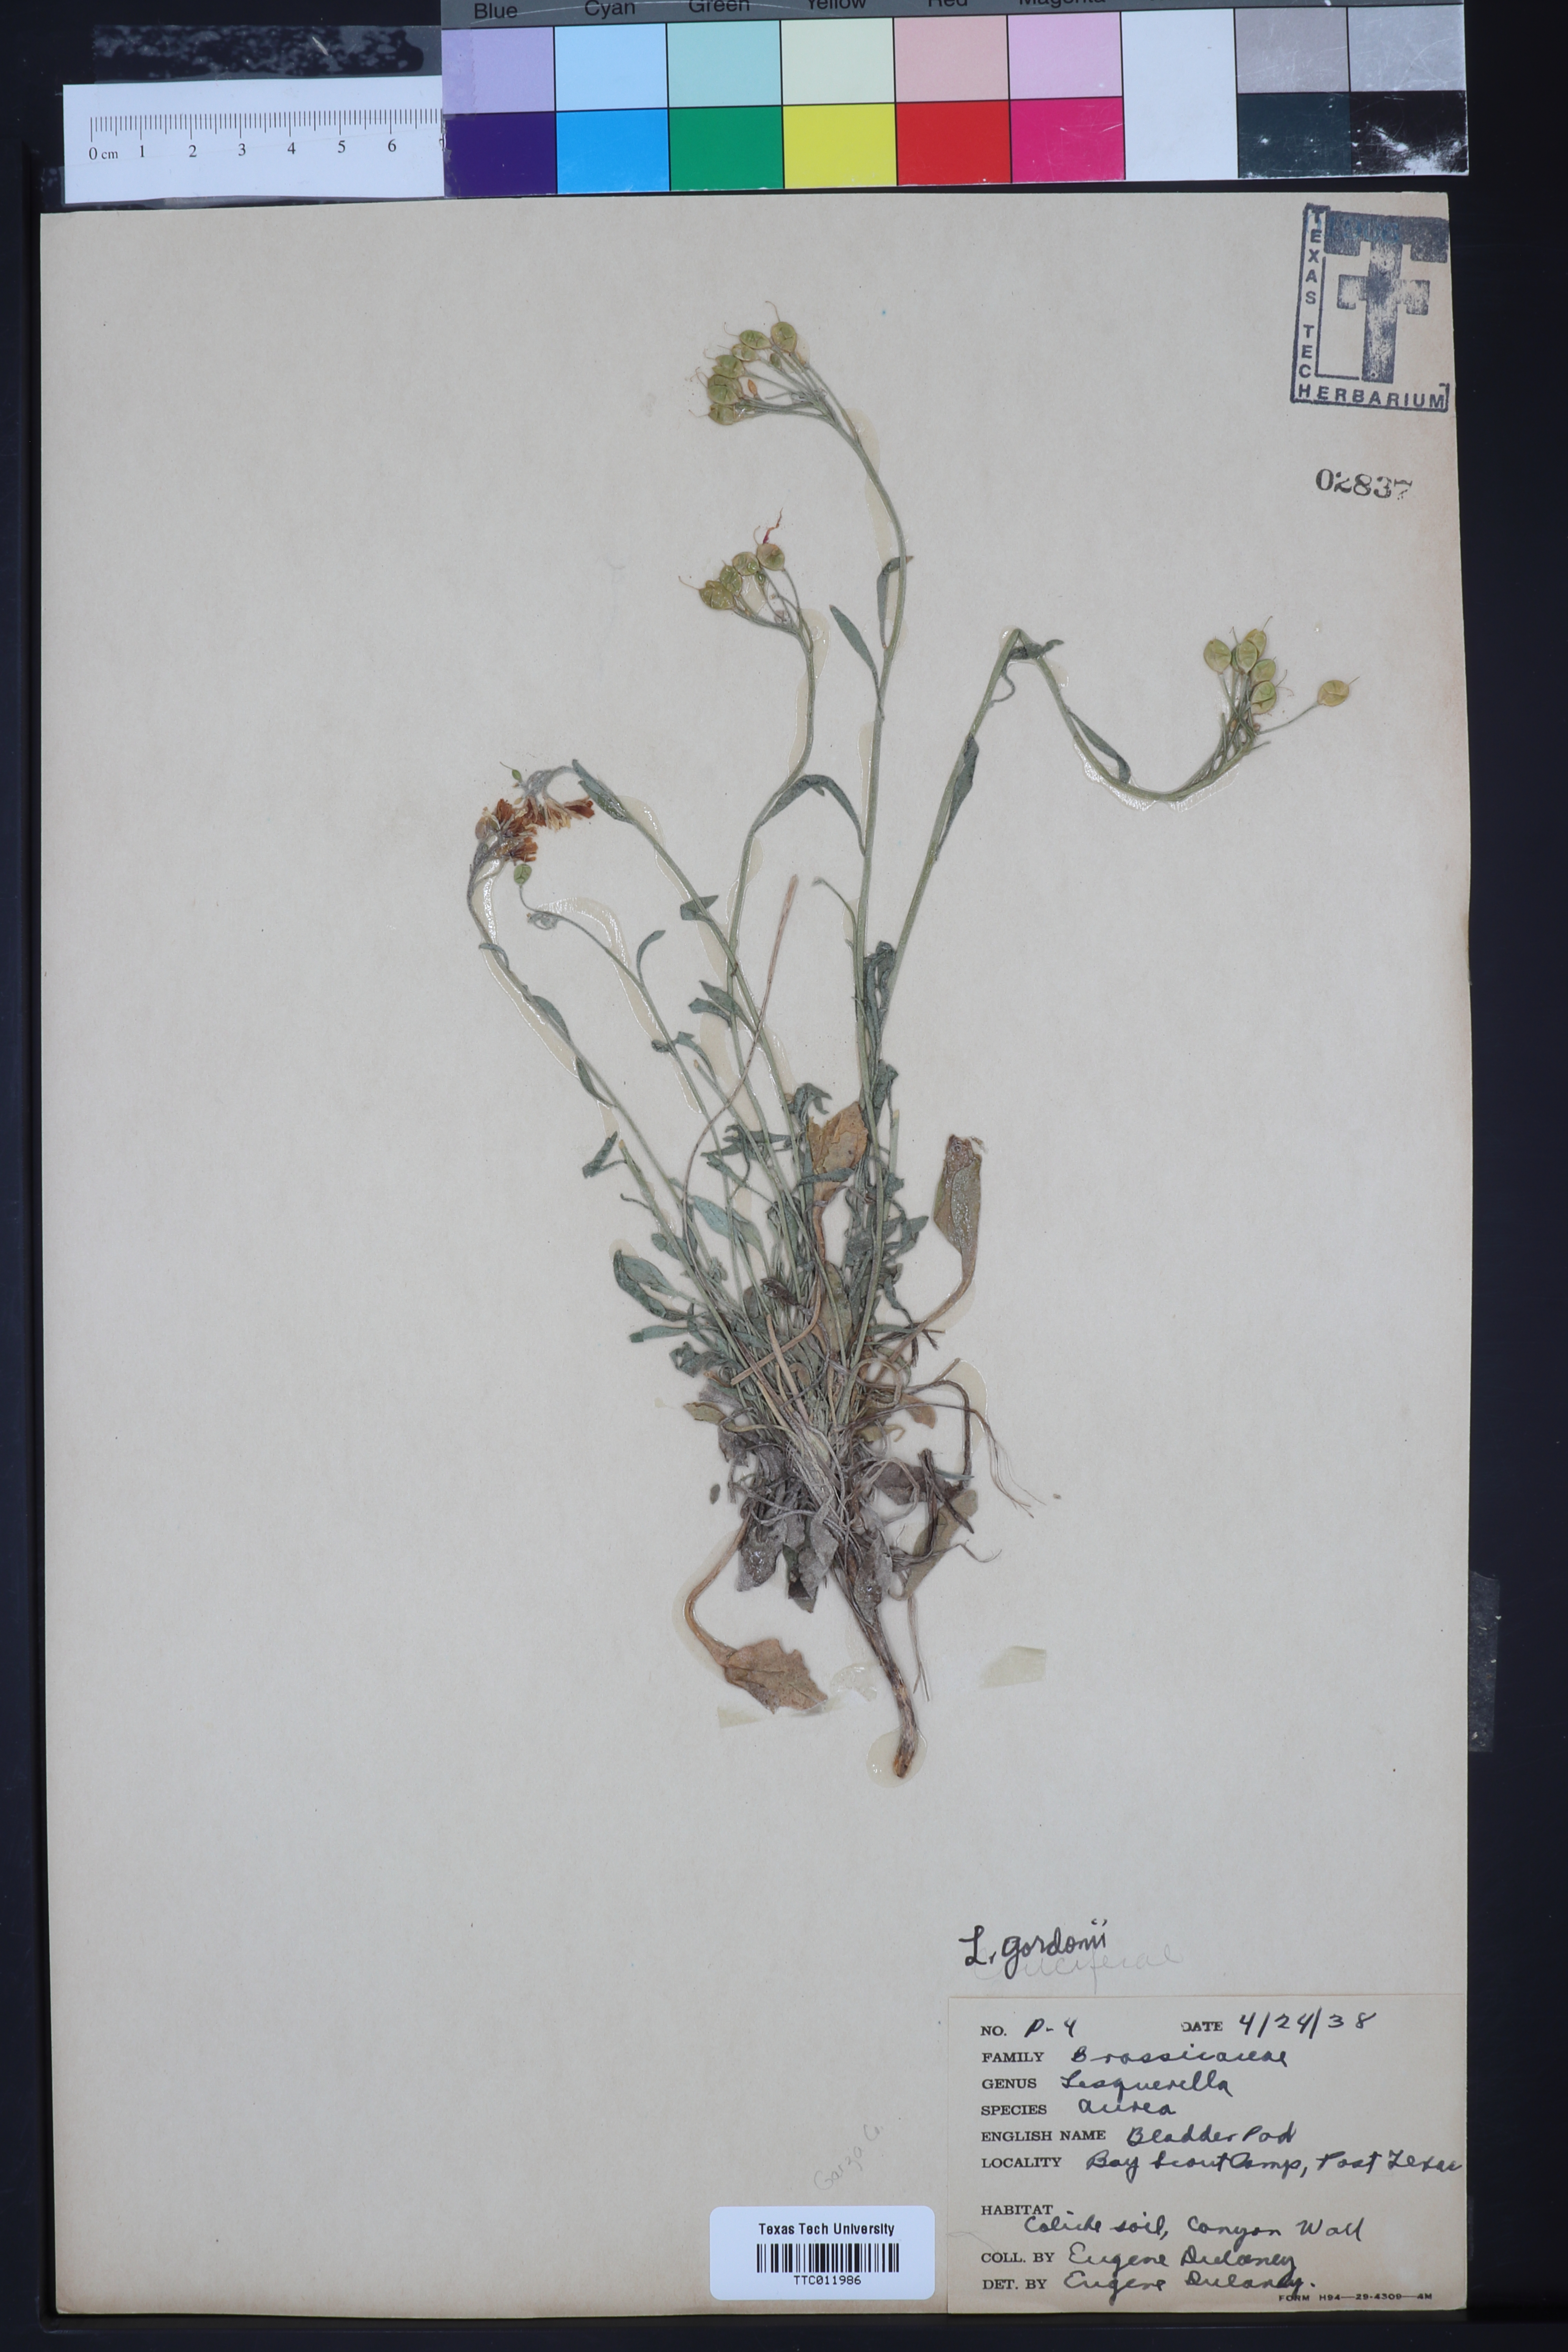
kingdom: Plantae
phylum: Tracheophyta
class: Magnoliopsida
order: Brassicales
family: Brassicaceae
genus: Physaria
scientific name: Physaria gordonii
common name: Gordon's bladderpod
